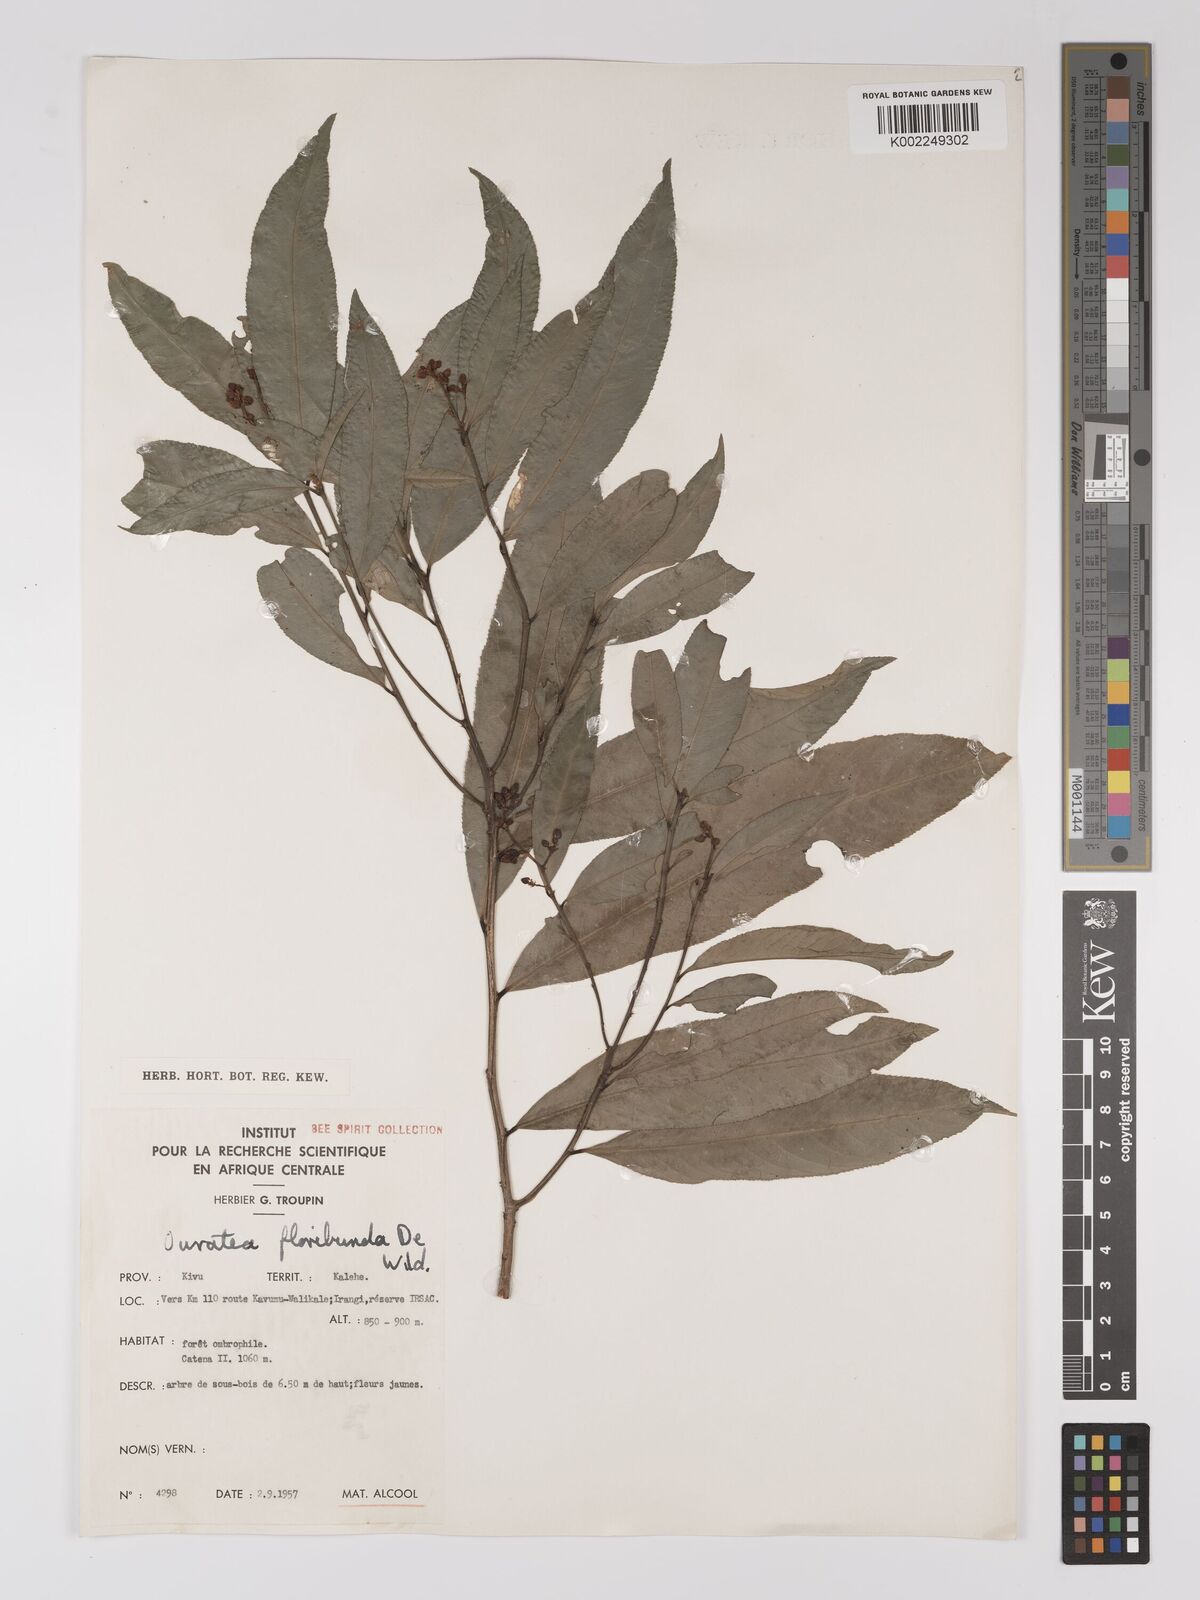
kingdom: Plantae
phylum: Tracheophyta
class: Magnoliopsida
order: Malpighiales
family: Ochnaceae
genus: Campylospermum
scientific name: Campylospermum likimiense
